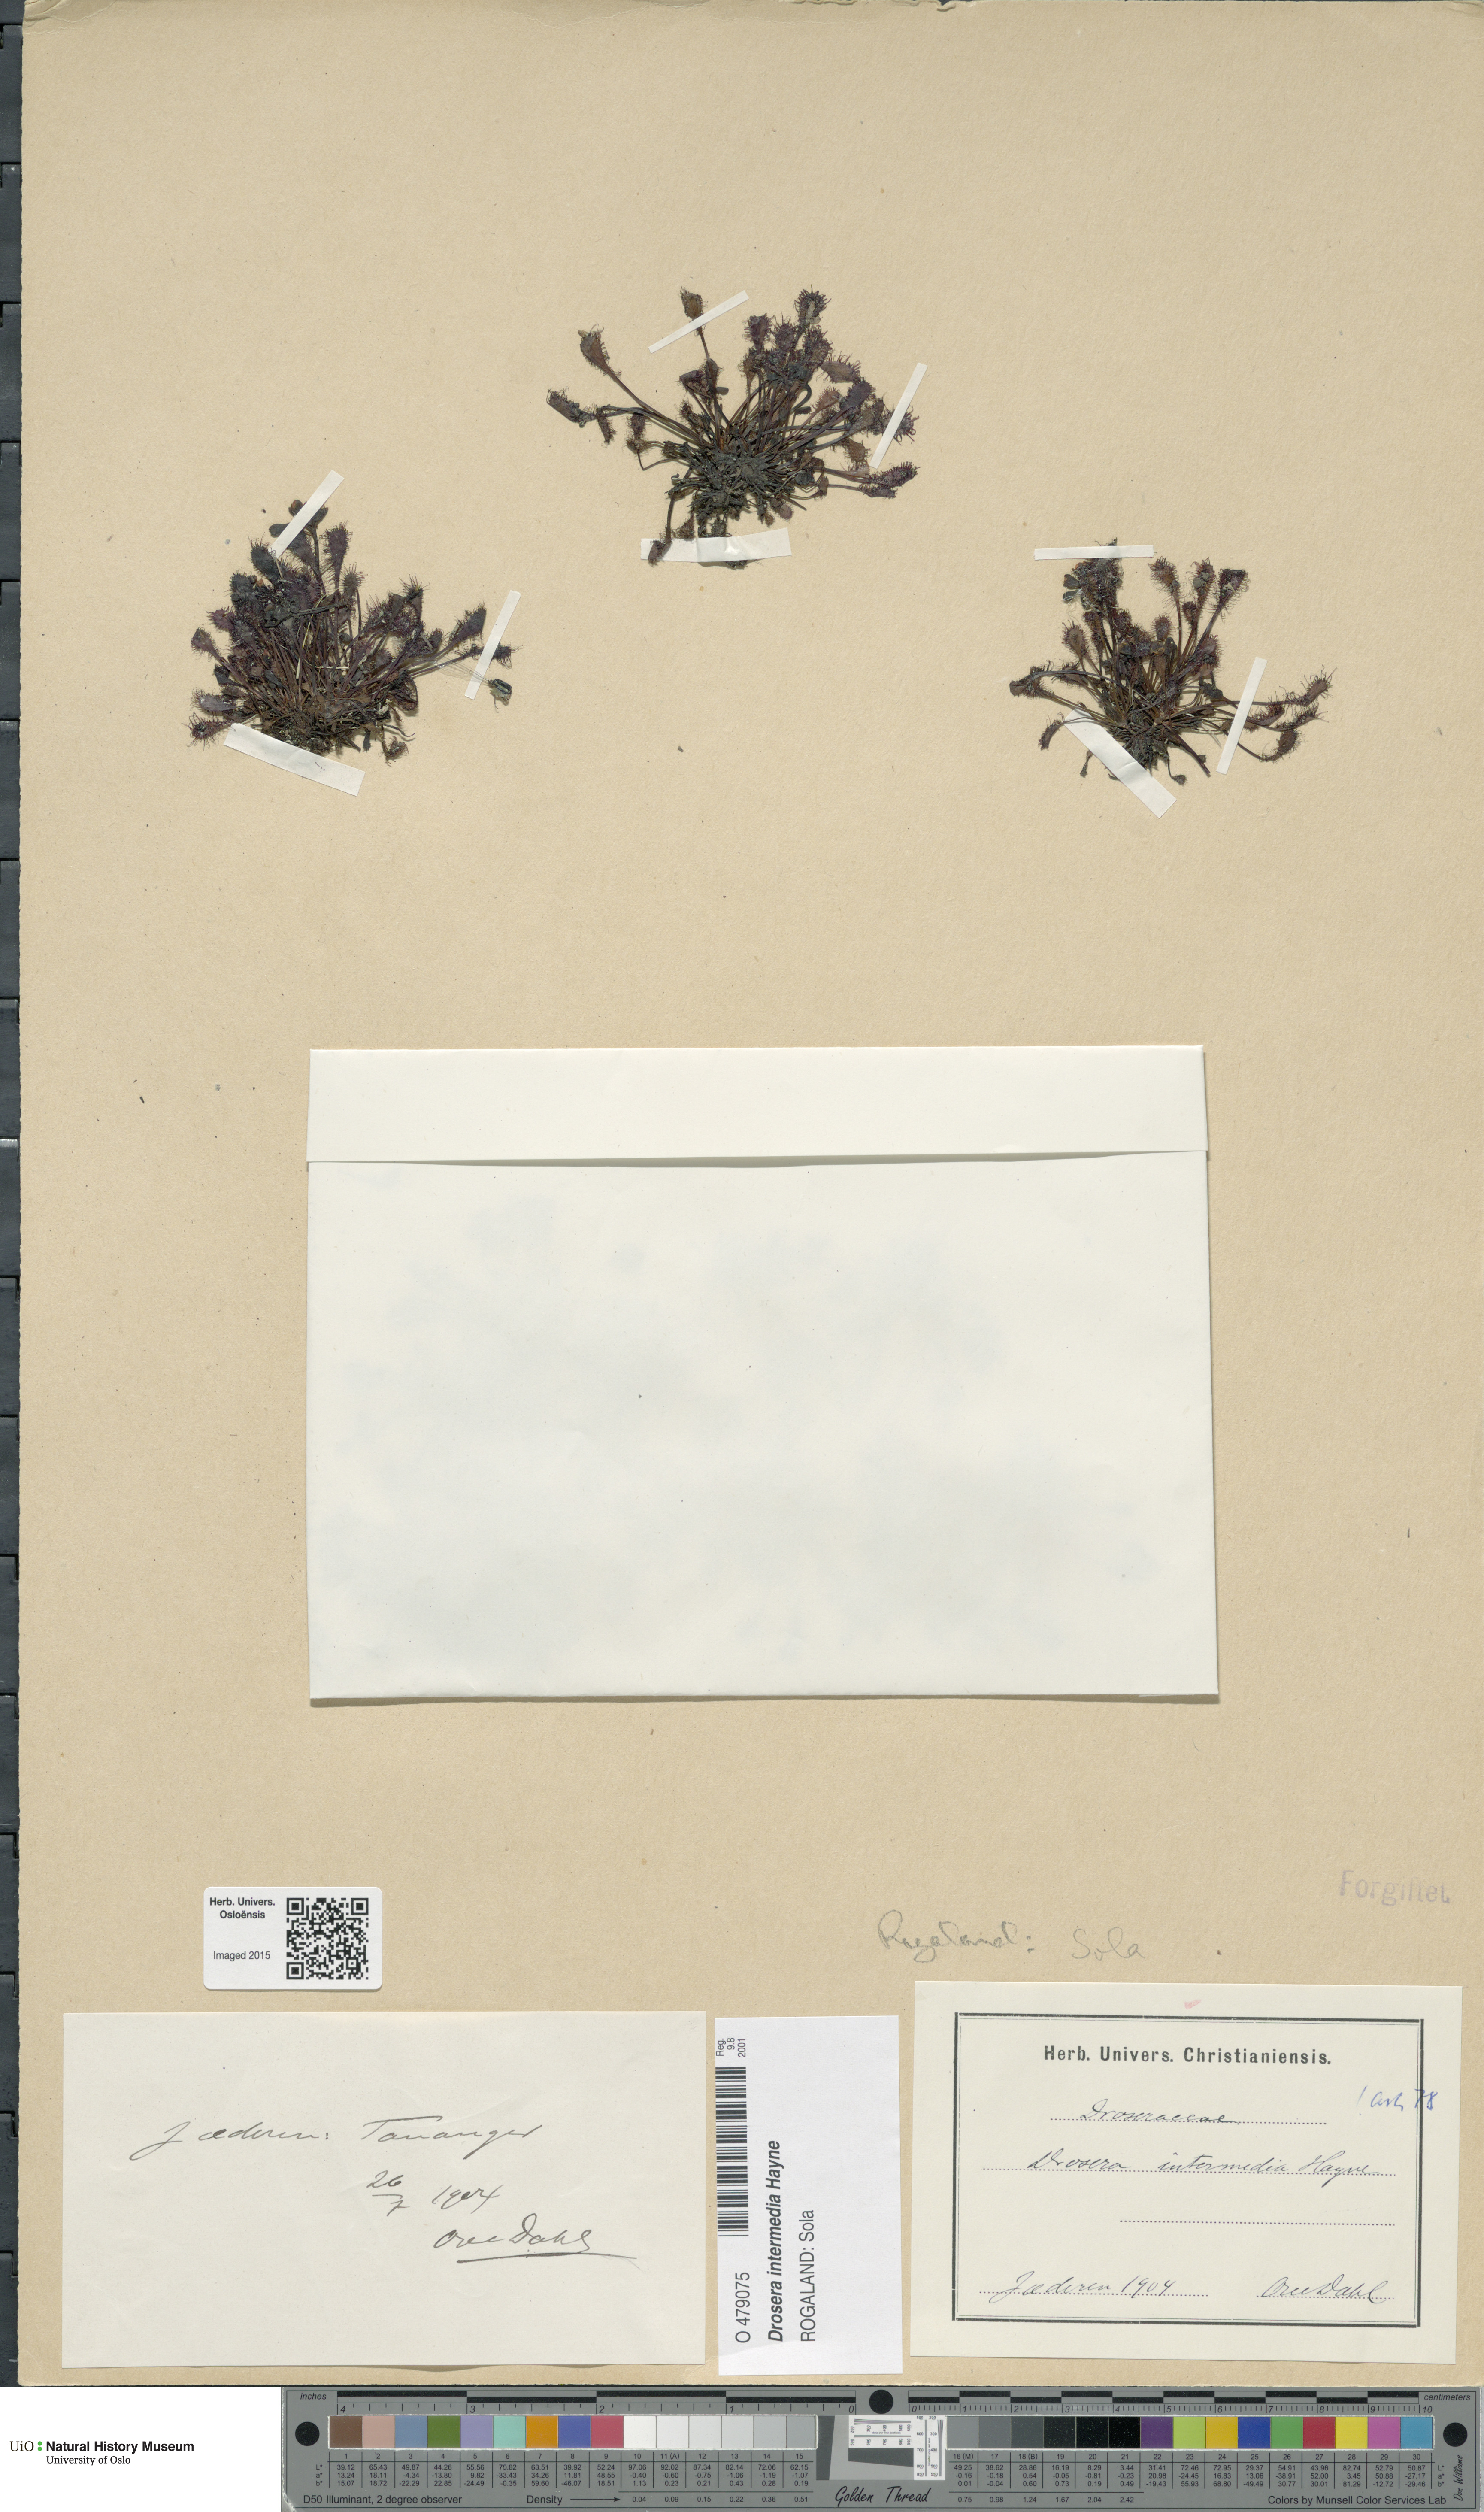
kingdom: Plantae
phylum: Tracheophyta
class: Magnoliopsida
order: Caryophyllales
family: Droseraceae
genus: Drosera
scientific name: Drosera intermedia
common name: Oblong-leaved sundew
